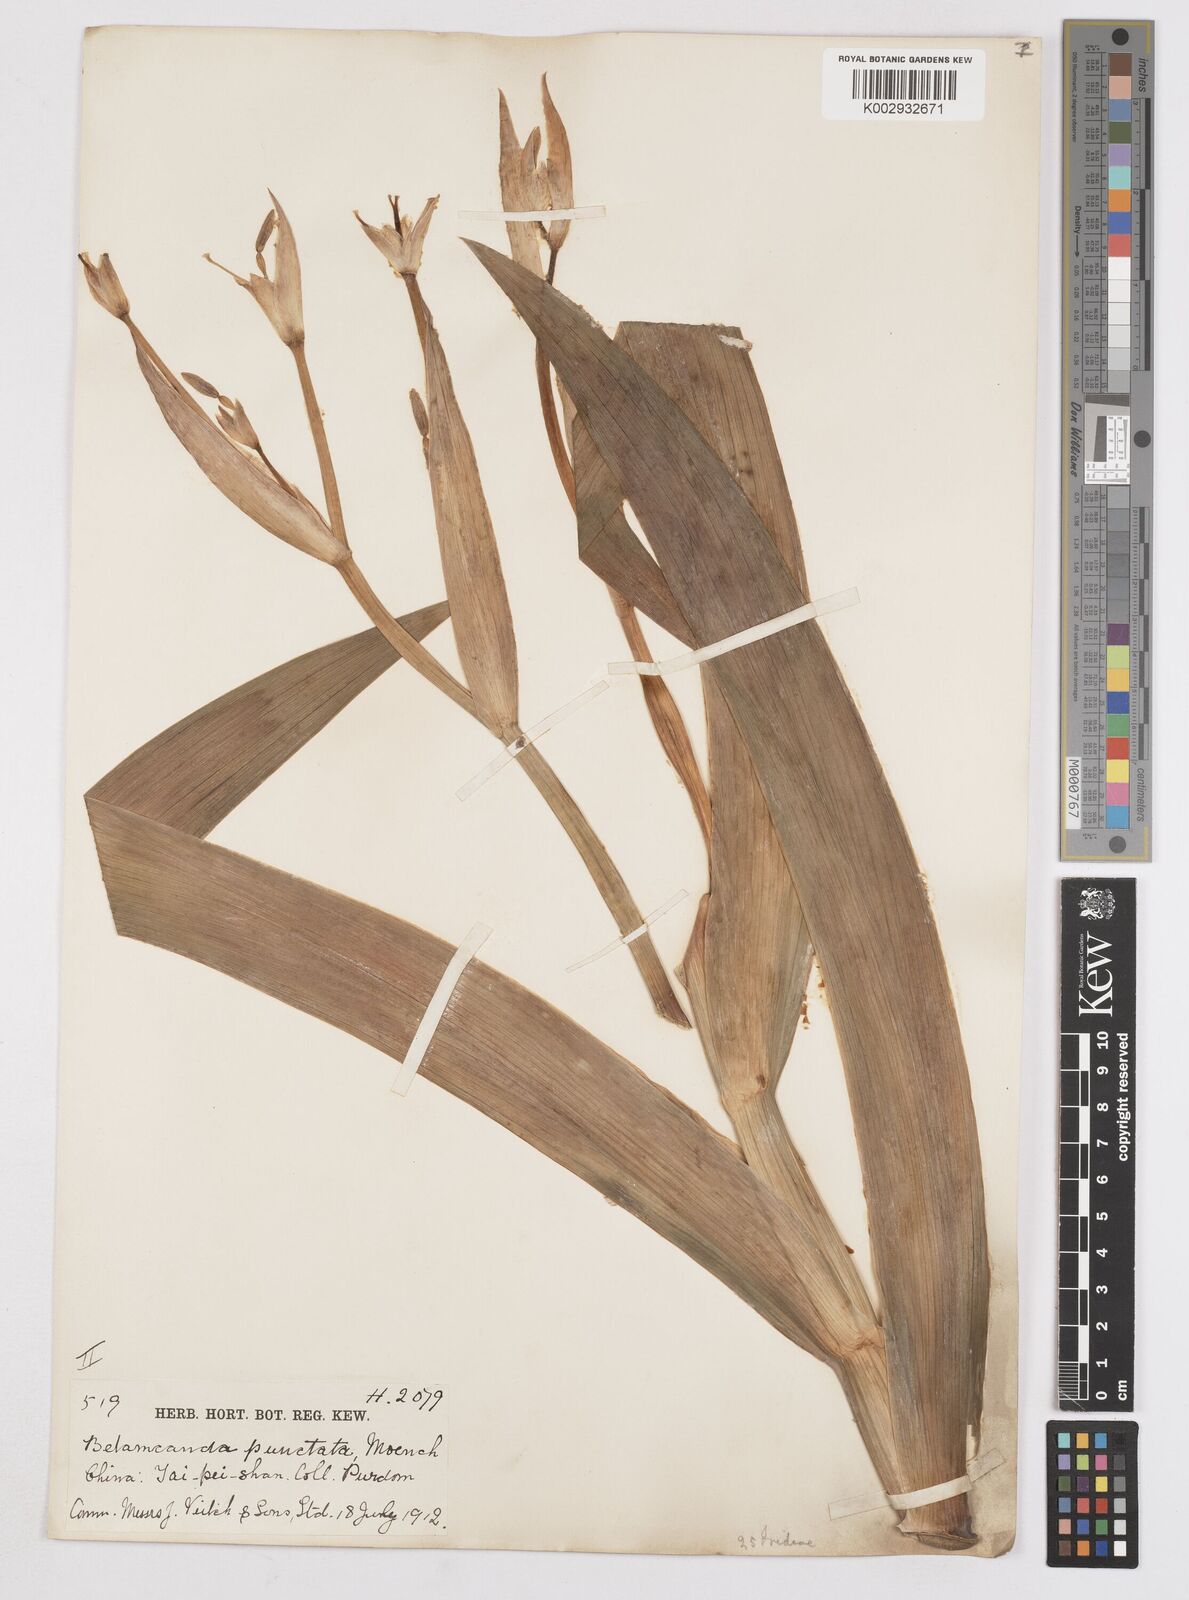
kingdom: Plantae
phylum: Tracheophyta
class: Liliopsida
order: Asparagales
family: Iridaceae
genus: Iris
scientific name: Iris
